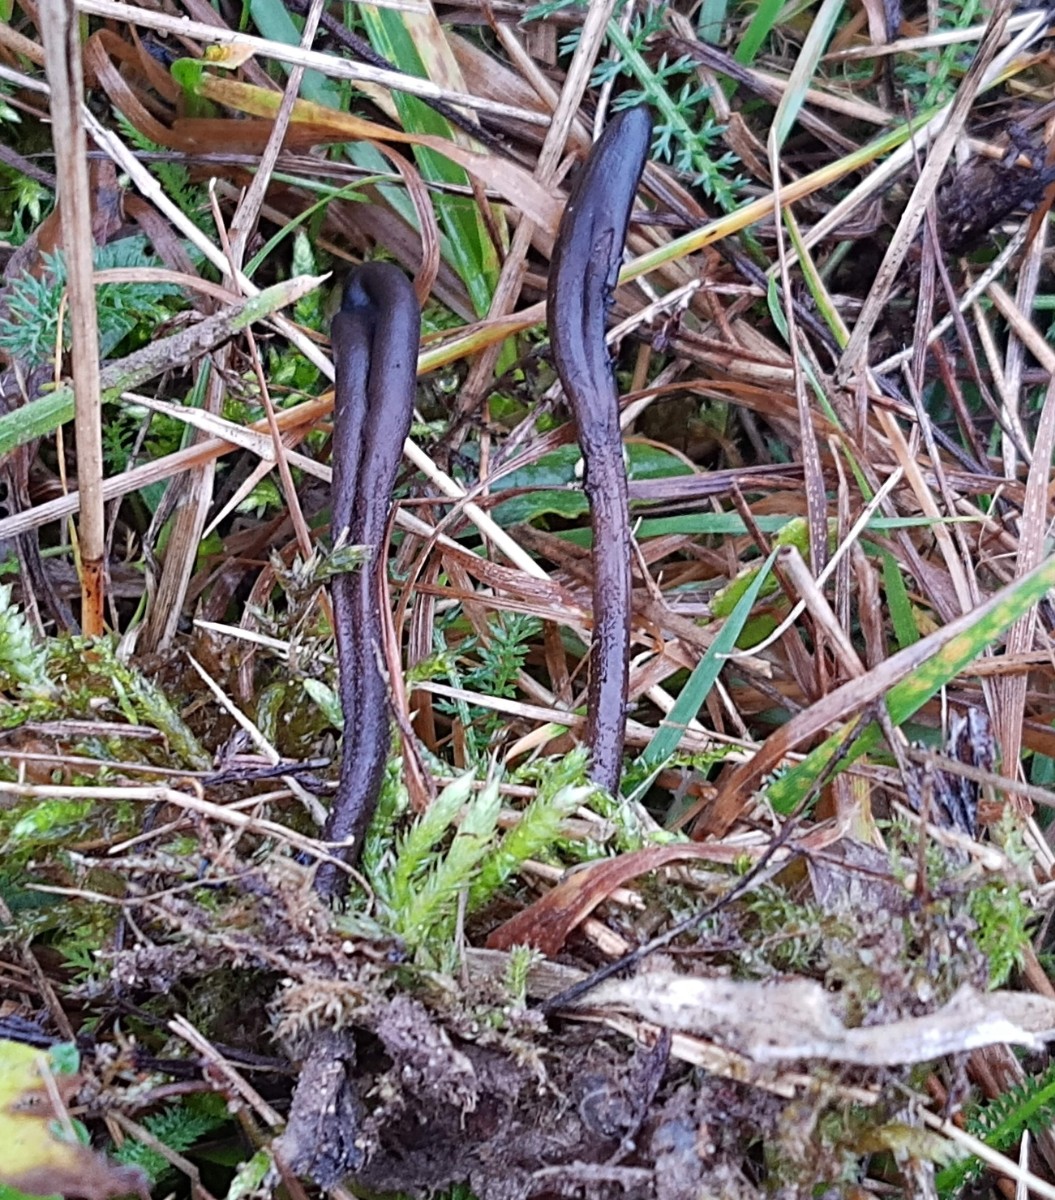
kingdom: Fungi
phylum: Ascomycota
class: Geoglossomycetes
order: Geoglossales
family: Geoglossaceae
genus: Geoglossum
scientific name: Geoglossum fallax
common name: småskællet jordtunge
